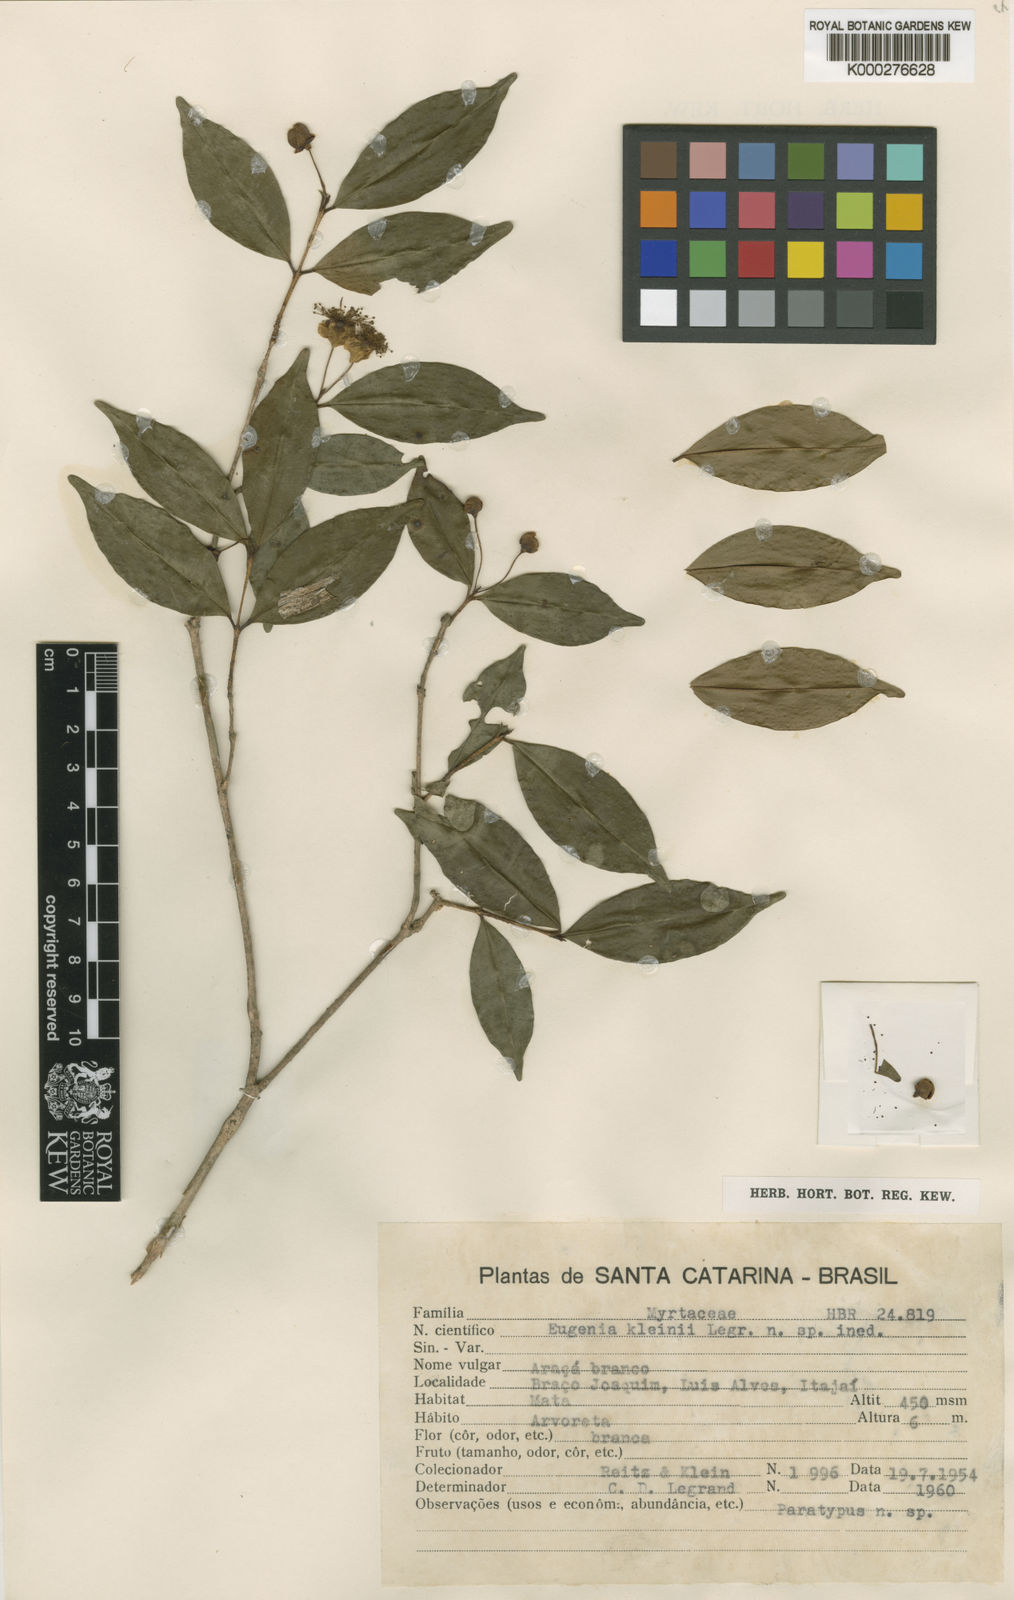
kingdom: Plantae
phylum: Tracheophyta
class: Magnoliopsida
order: Myrtales
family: Myrtaceae
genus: Eugenia
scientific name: Eugenia kleinii
